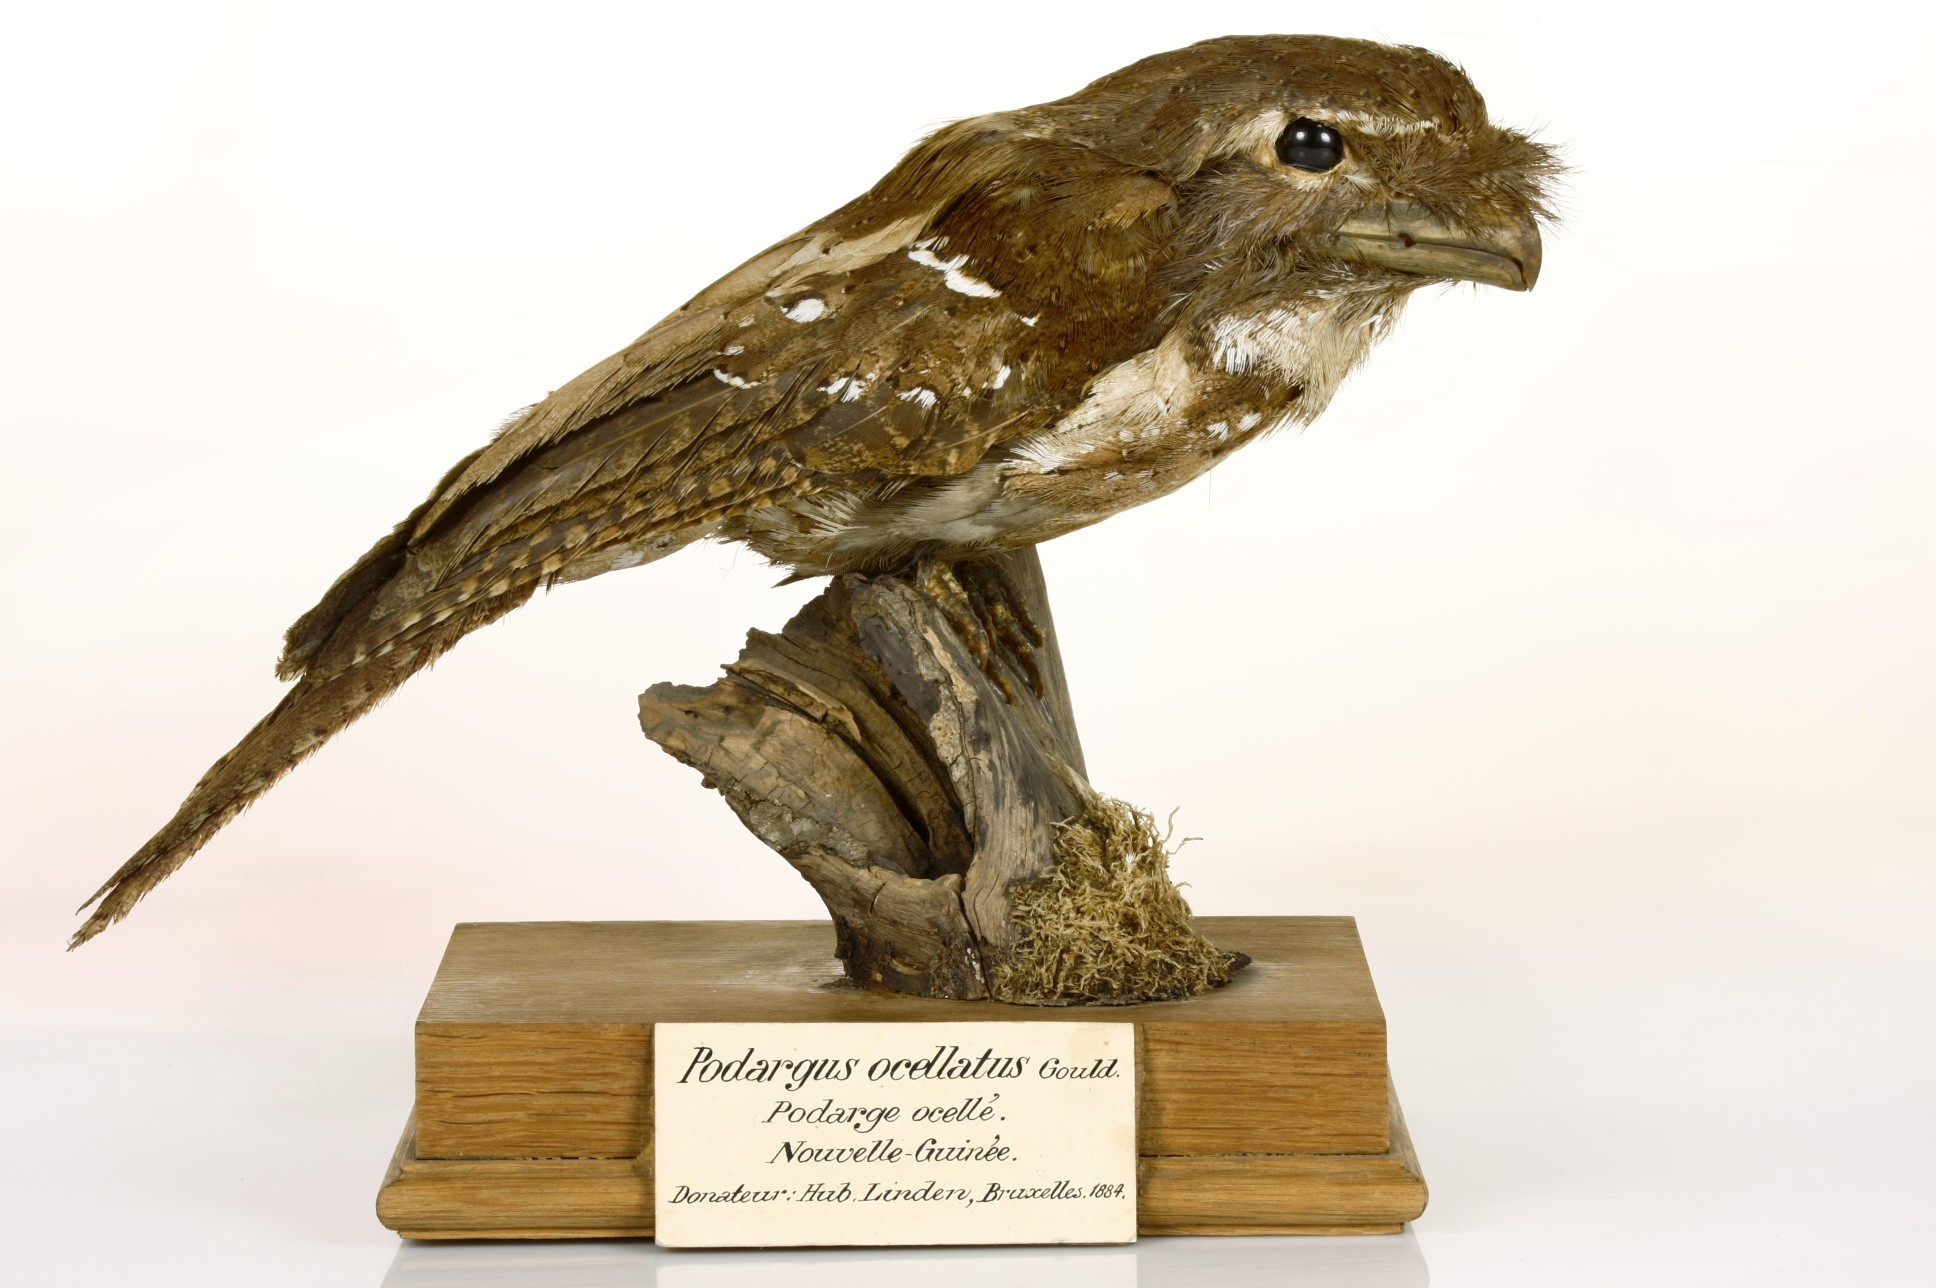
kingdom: Animalia
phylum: Chordata
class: Aves
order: Caprimulgiformes
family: Podargidae
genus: Rigidipenna
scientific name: Rigidipenna inexpectata
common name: Solomons frogmouth
